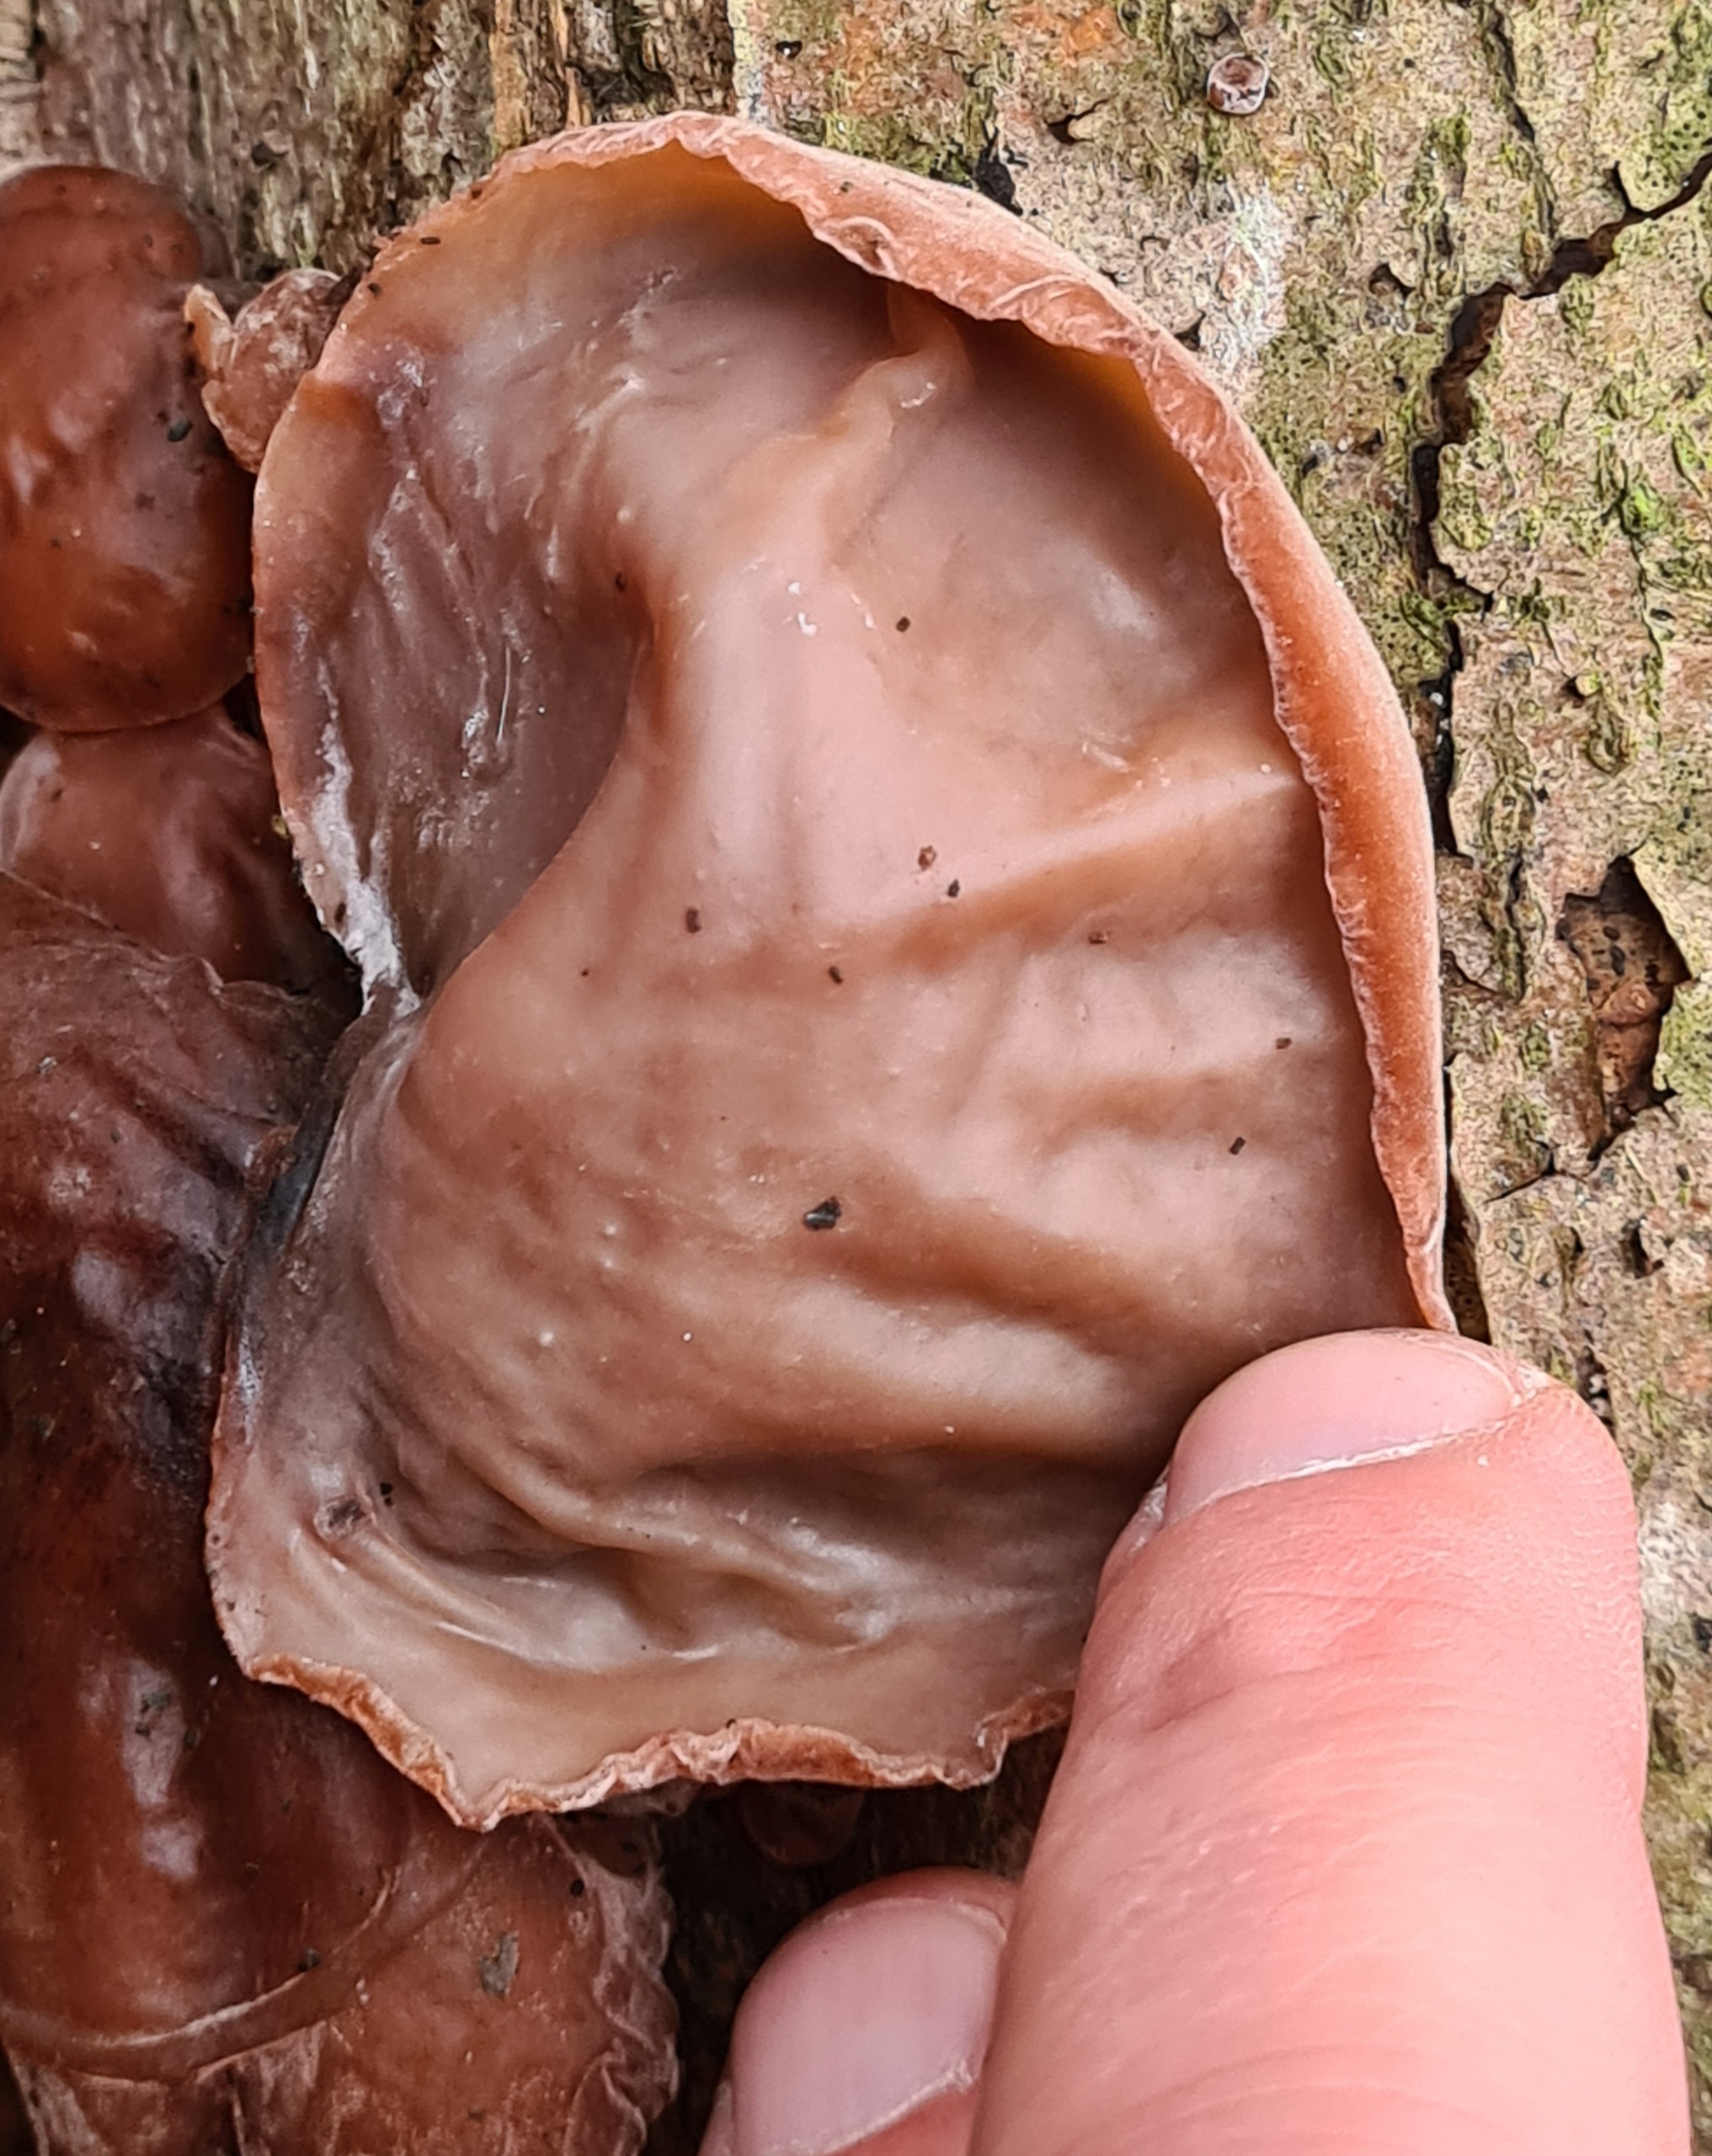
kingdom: Fungi
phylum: Basidiomycota
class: Agaricomycetes
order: Auriculariales
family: Auriculariaceae
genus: Auricularia
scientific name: Auricularia auricula-judae
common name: Almindelig judasøre
